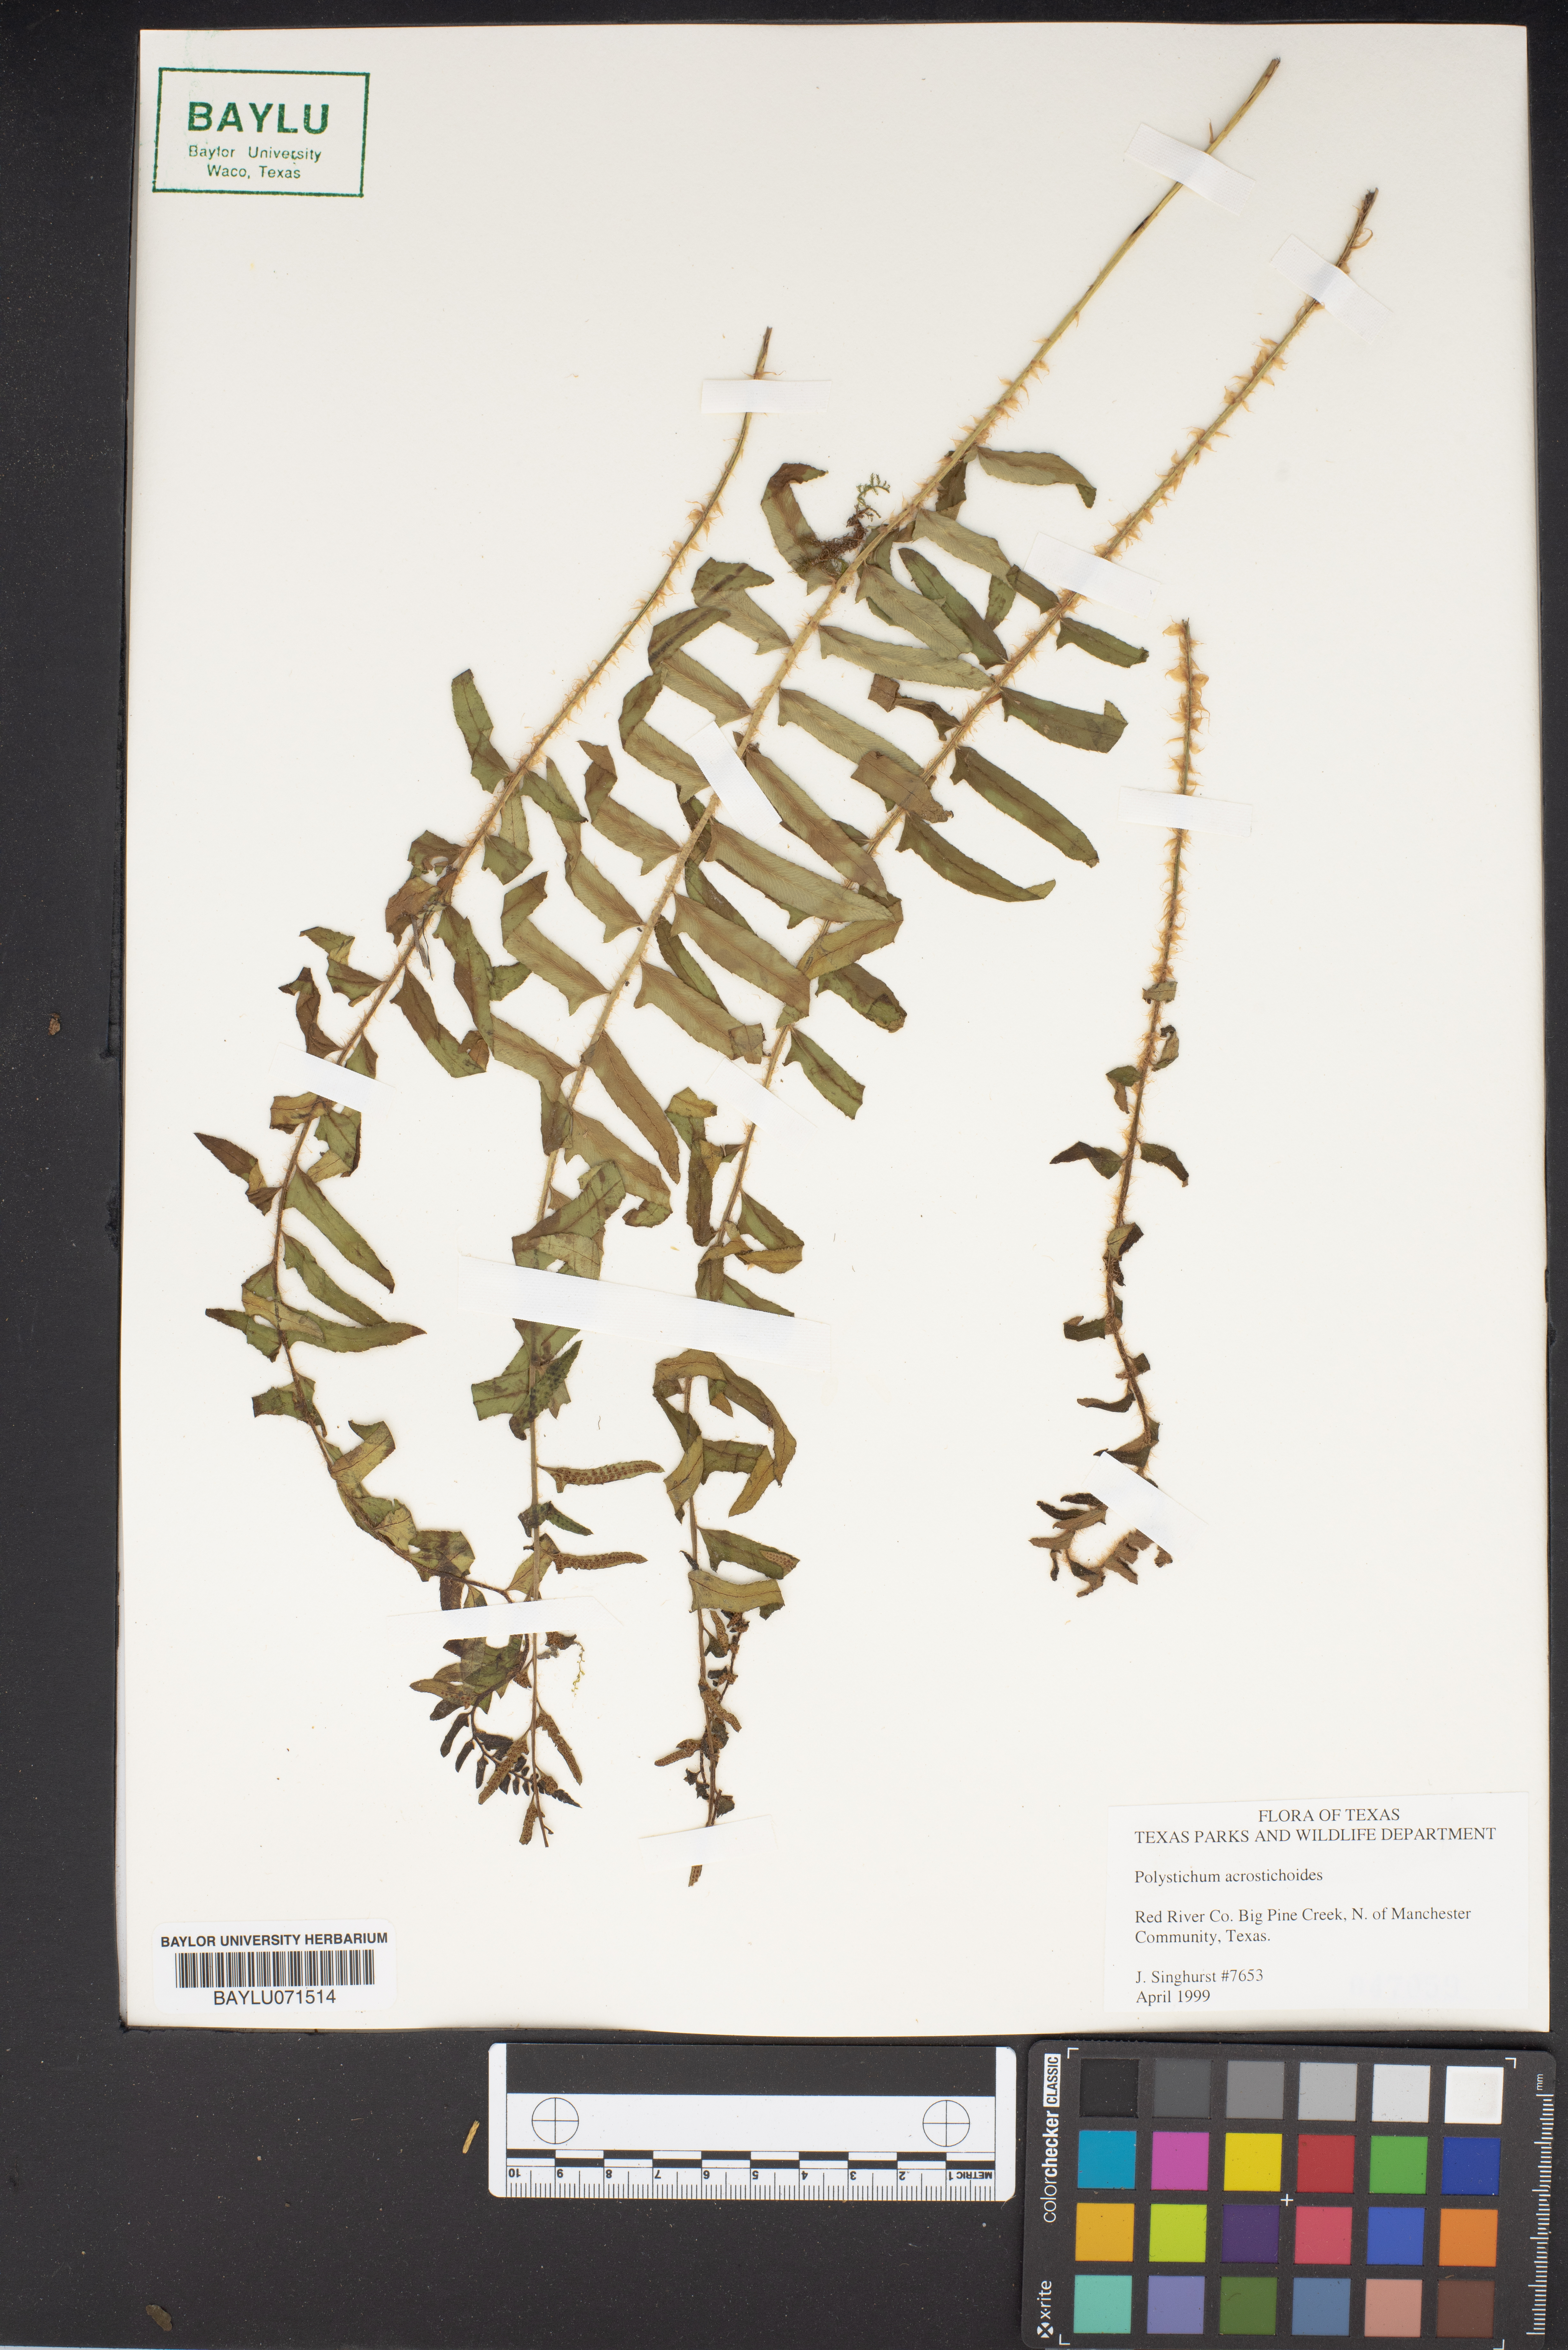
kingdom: Plantae
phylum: Tracheophyta
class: Polypodiopsida
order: Polypodiales
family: Dryopteridaceae
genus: Polystichum
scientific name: Polystichum acrostichoides
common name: Christmas fern
